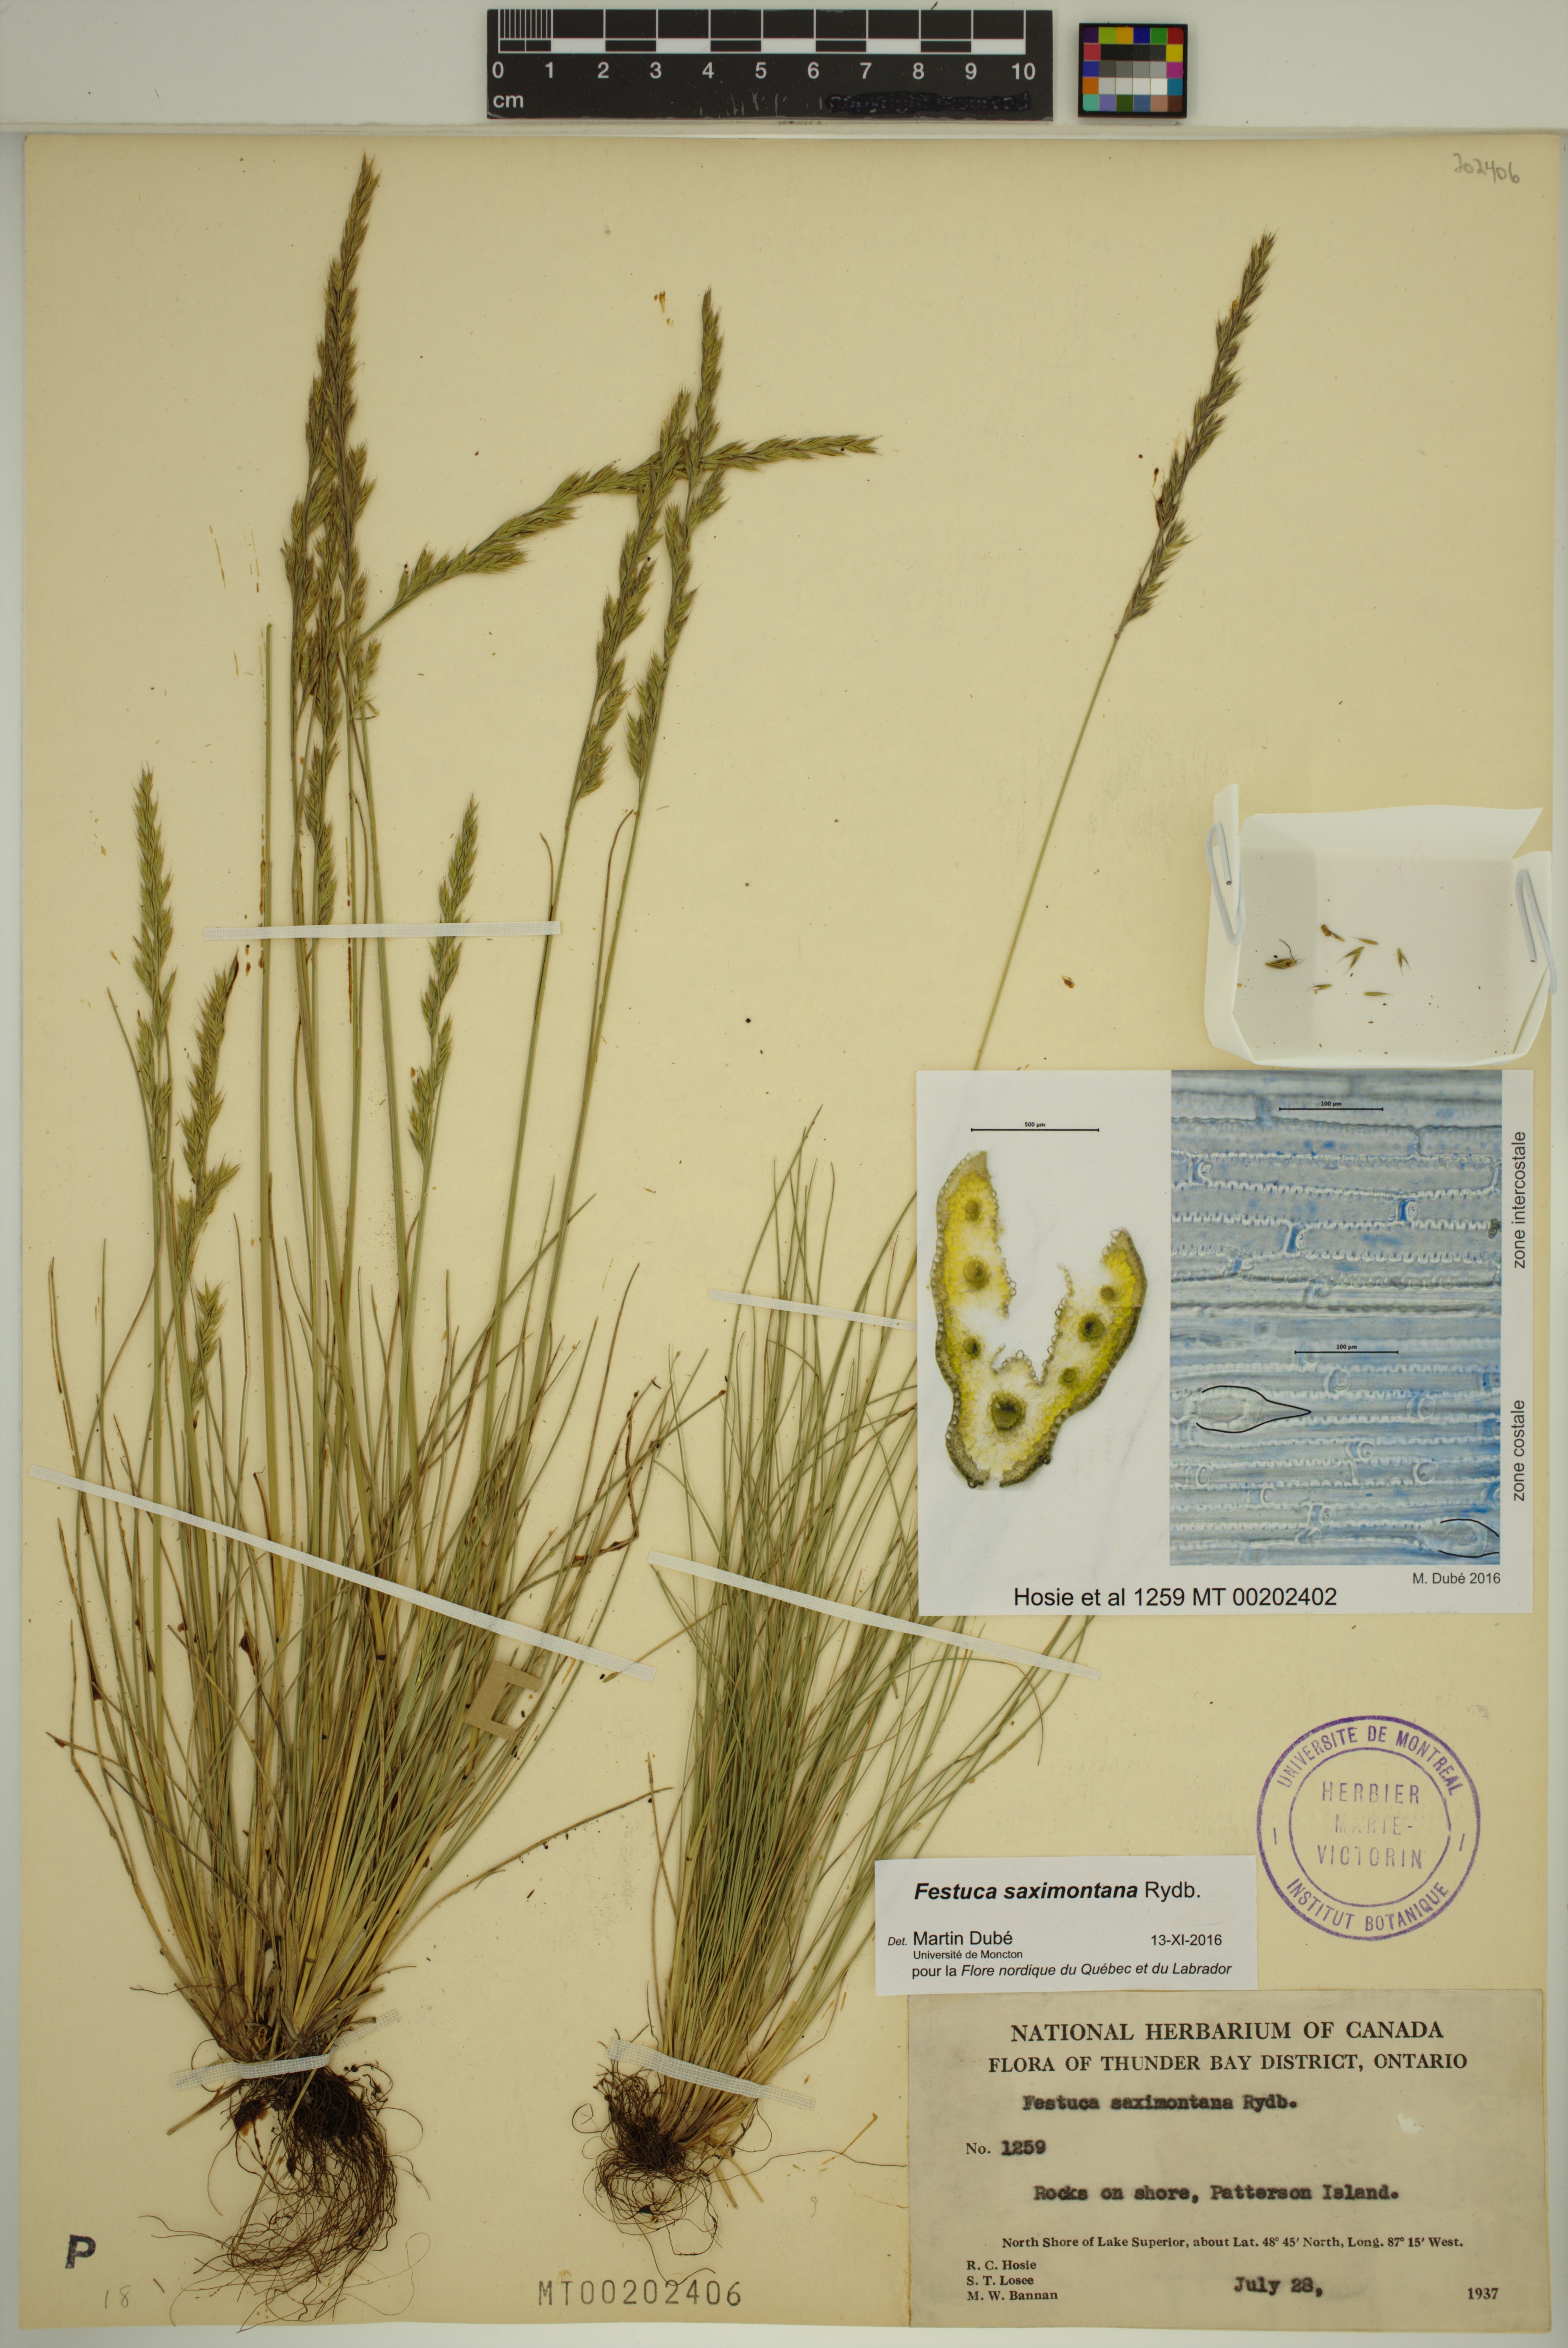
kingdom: Plantae
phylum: Tracheophyta
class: Liliopsida
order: Poales
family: Poaceae
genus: Festuca
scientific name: Festuca saximontana
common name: Mountain fescue
